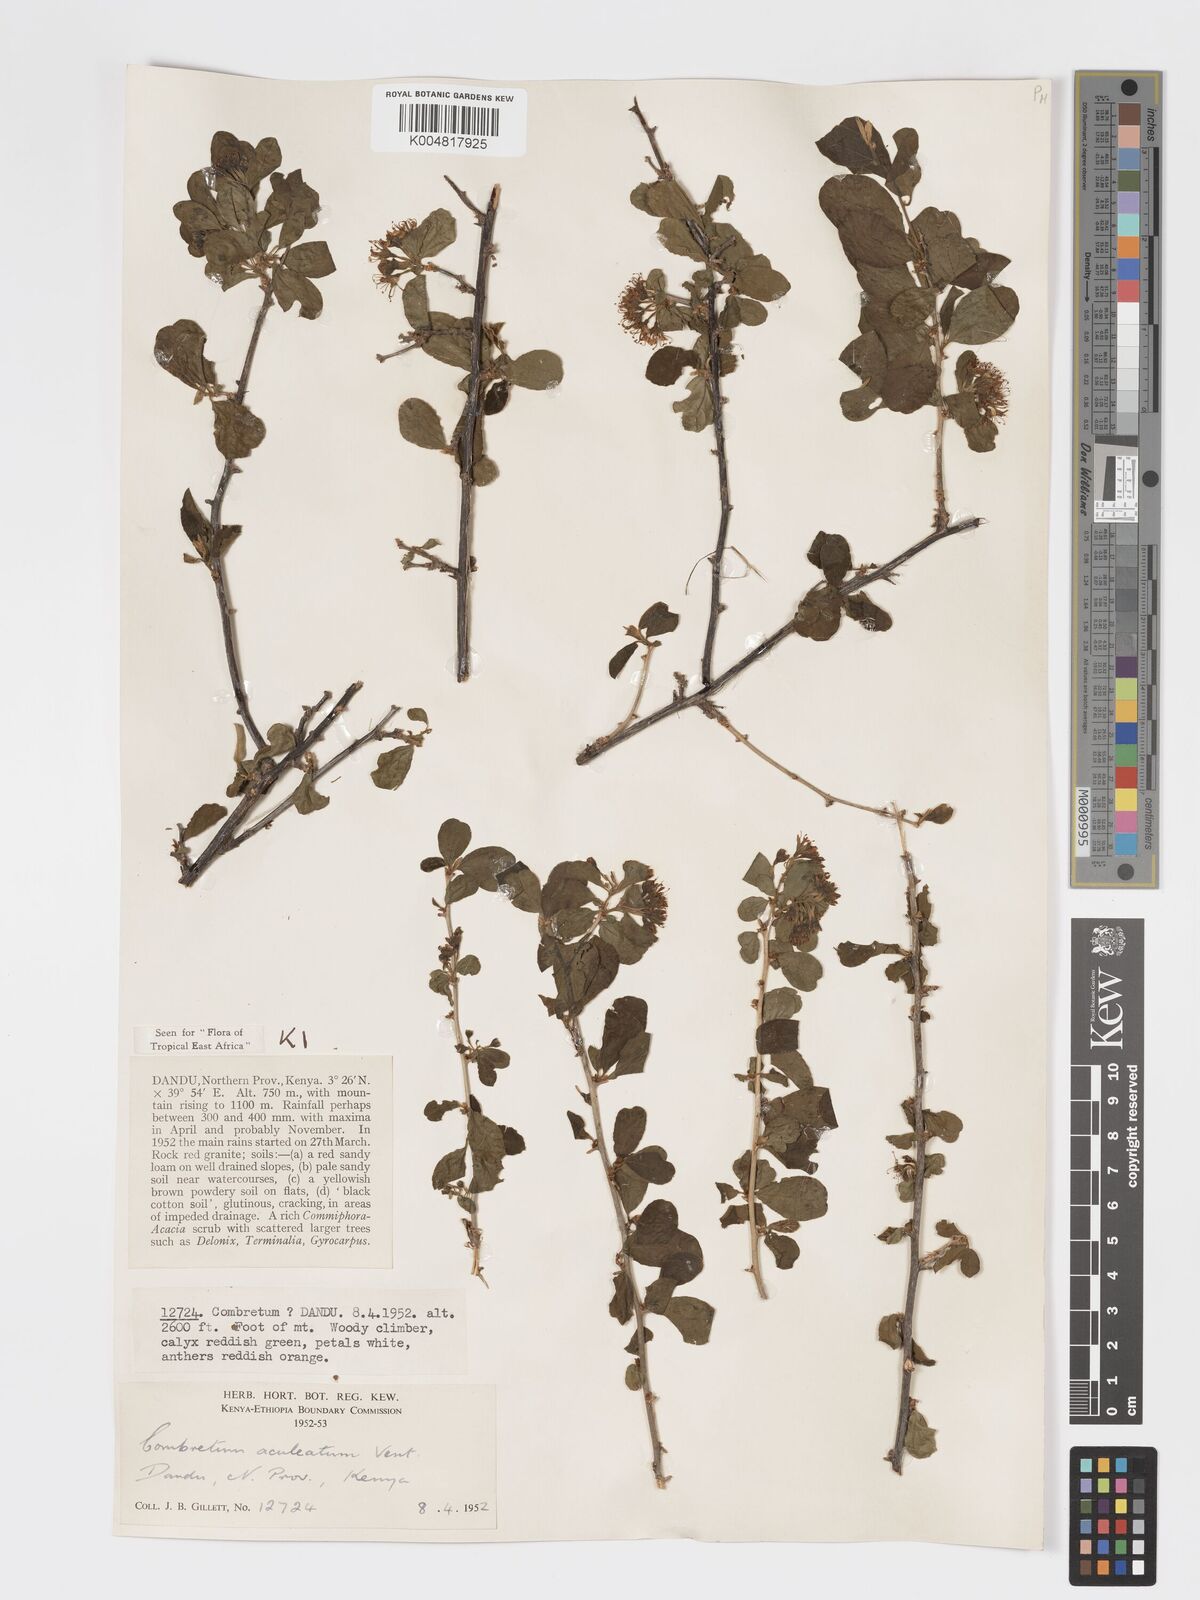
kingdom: Plantae
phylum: Tracheophyta
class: Magnoliopsida
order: Myrtales
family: Combretaceae
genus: Combretum
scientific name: Combretum aculeatum
